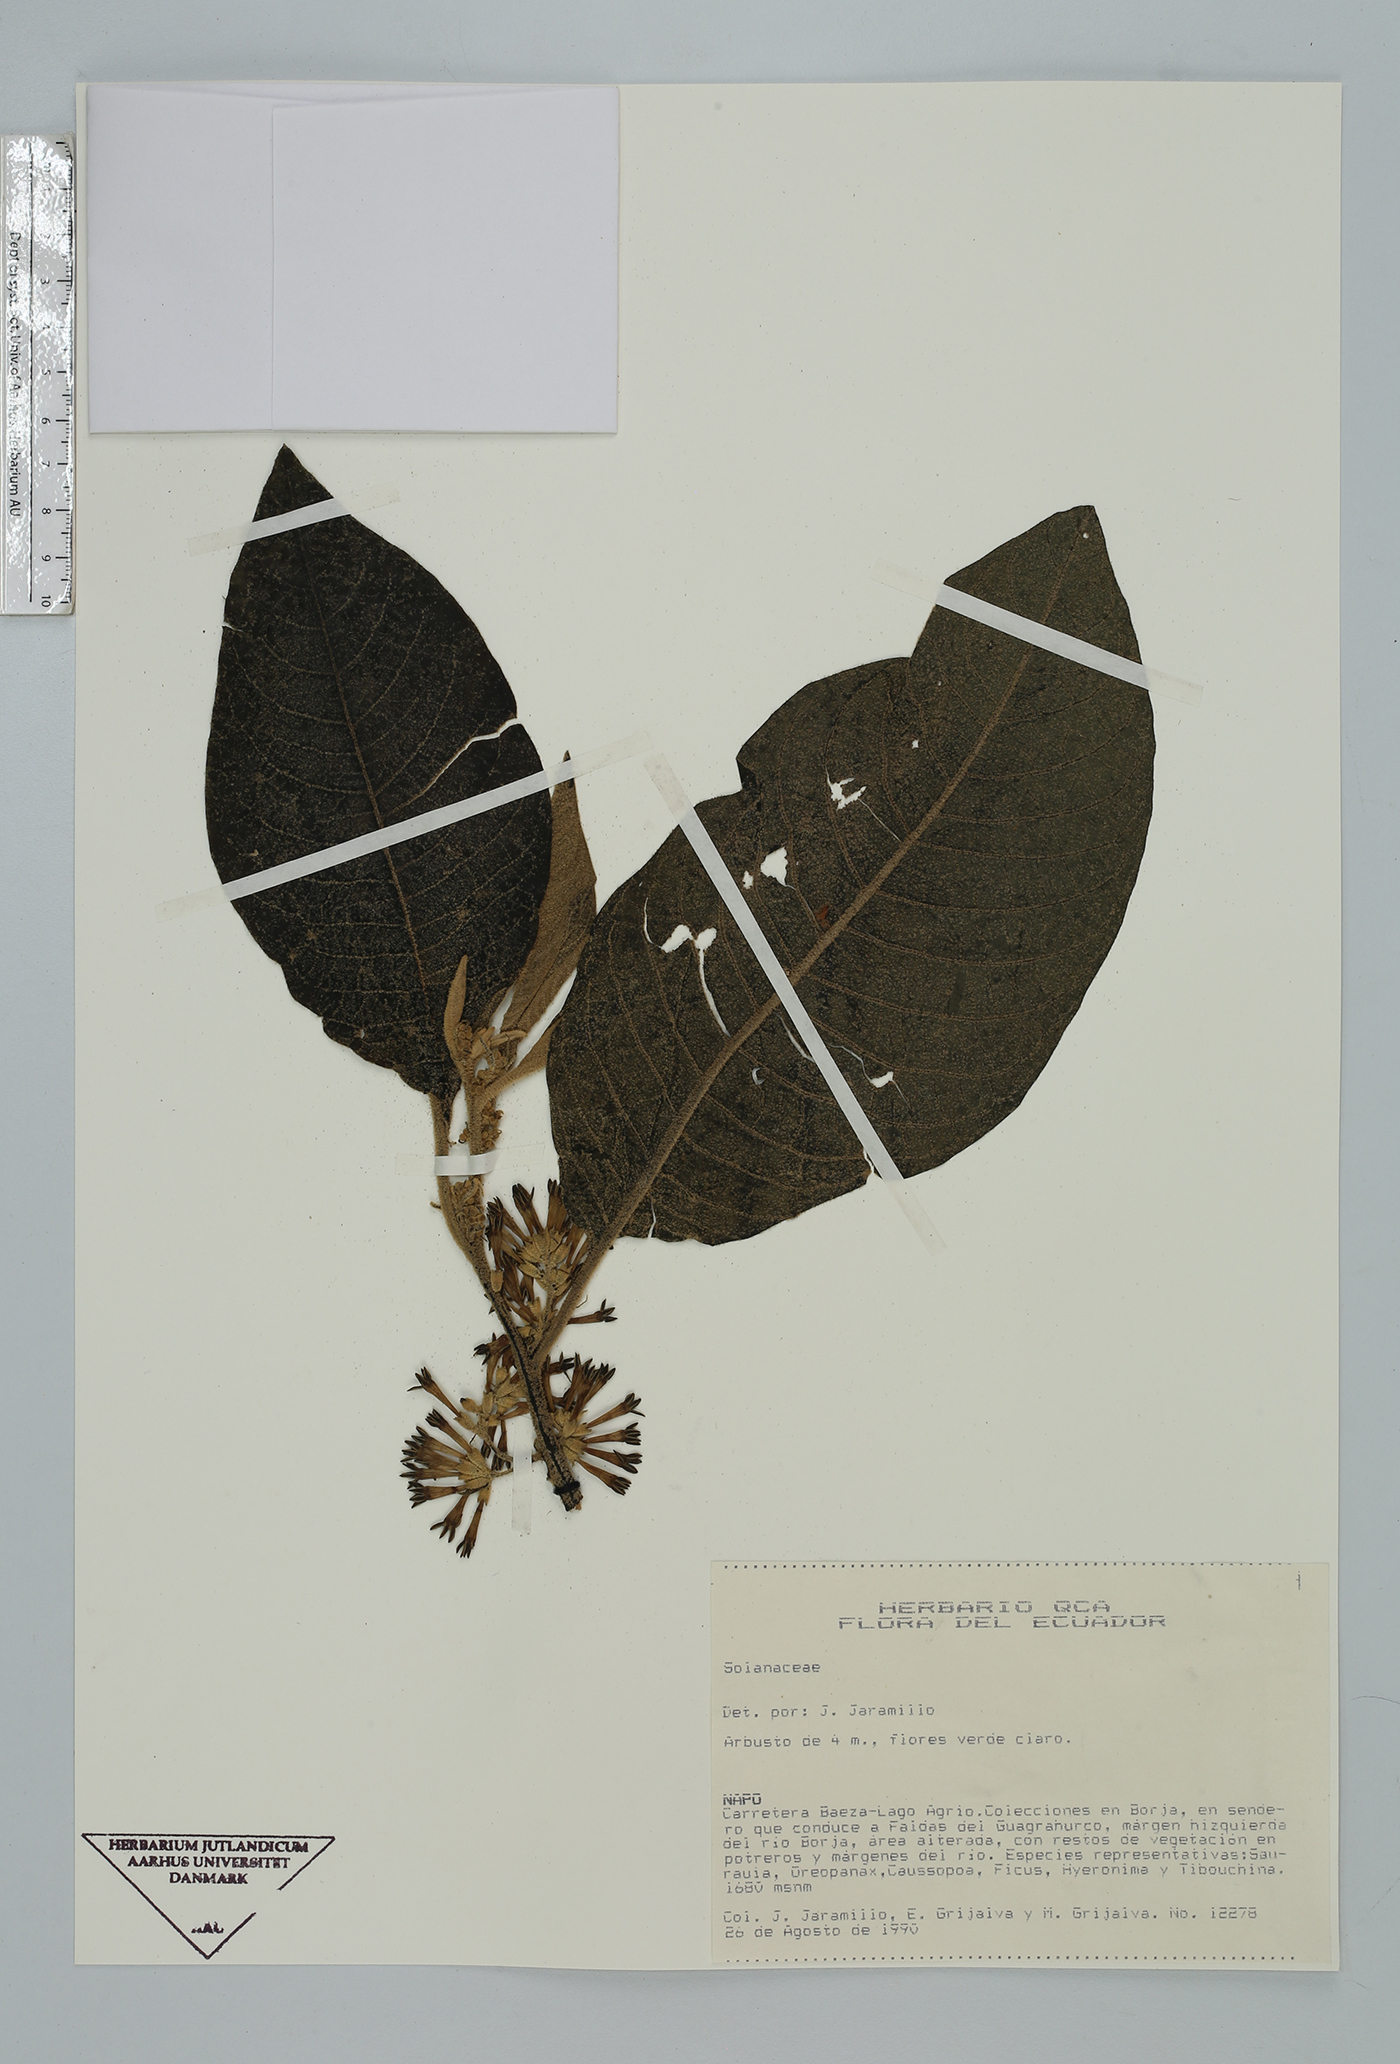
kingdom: Plantae
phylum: Tracheophyta
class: Magnoliopsida
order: Solanales
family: Solanaceae
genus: Cestrum
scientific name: Cestrum
